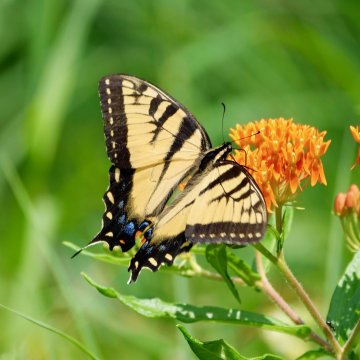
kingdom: Animalia
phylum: Arthropoda
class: Insecta
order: Lepidoptera
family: Papilionidae
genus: Pterourus
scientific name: Pterourus
